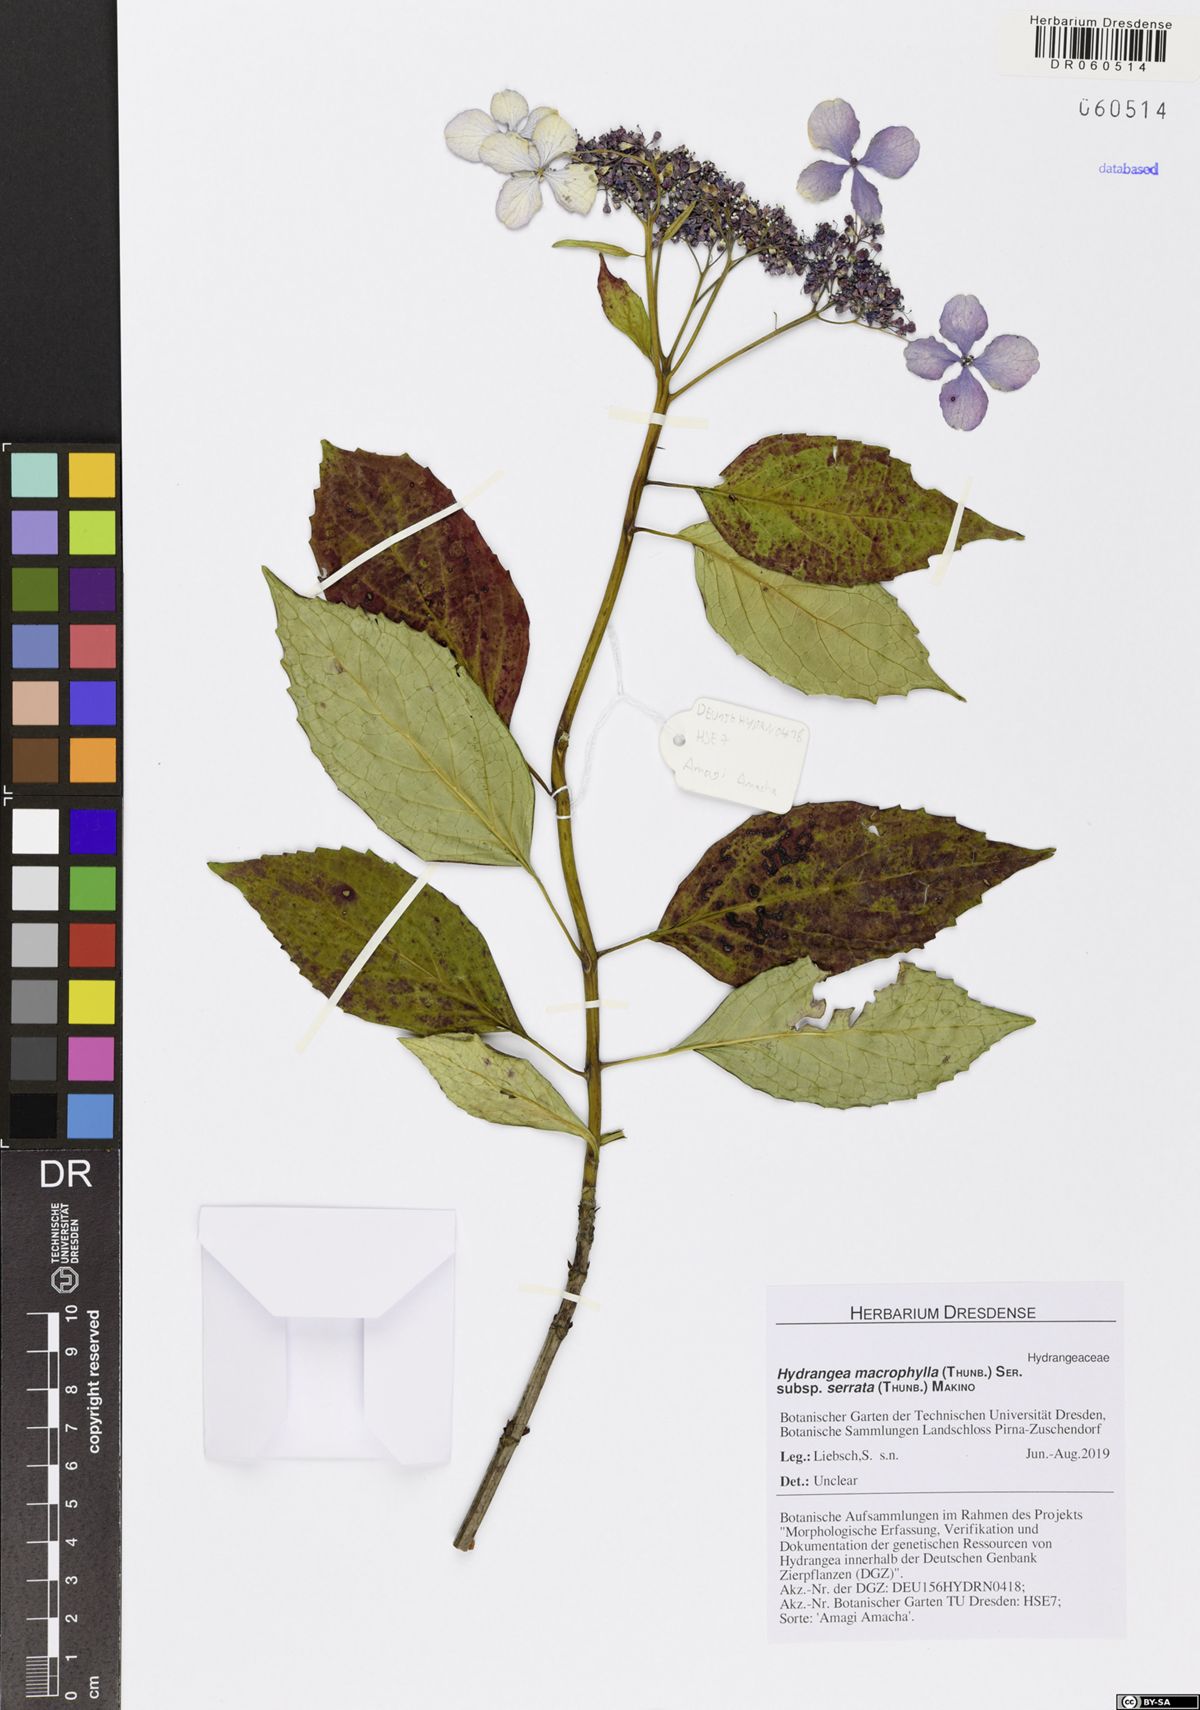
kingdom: Plantae
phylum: Tracheophyta
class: Magnoliopsida
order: Cornales
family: Hydrangeaceae
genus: Hydrangea
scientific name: Hydrangea serrata
